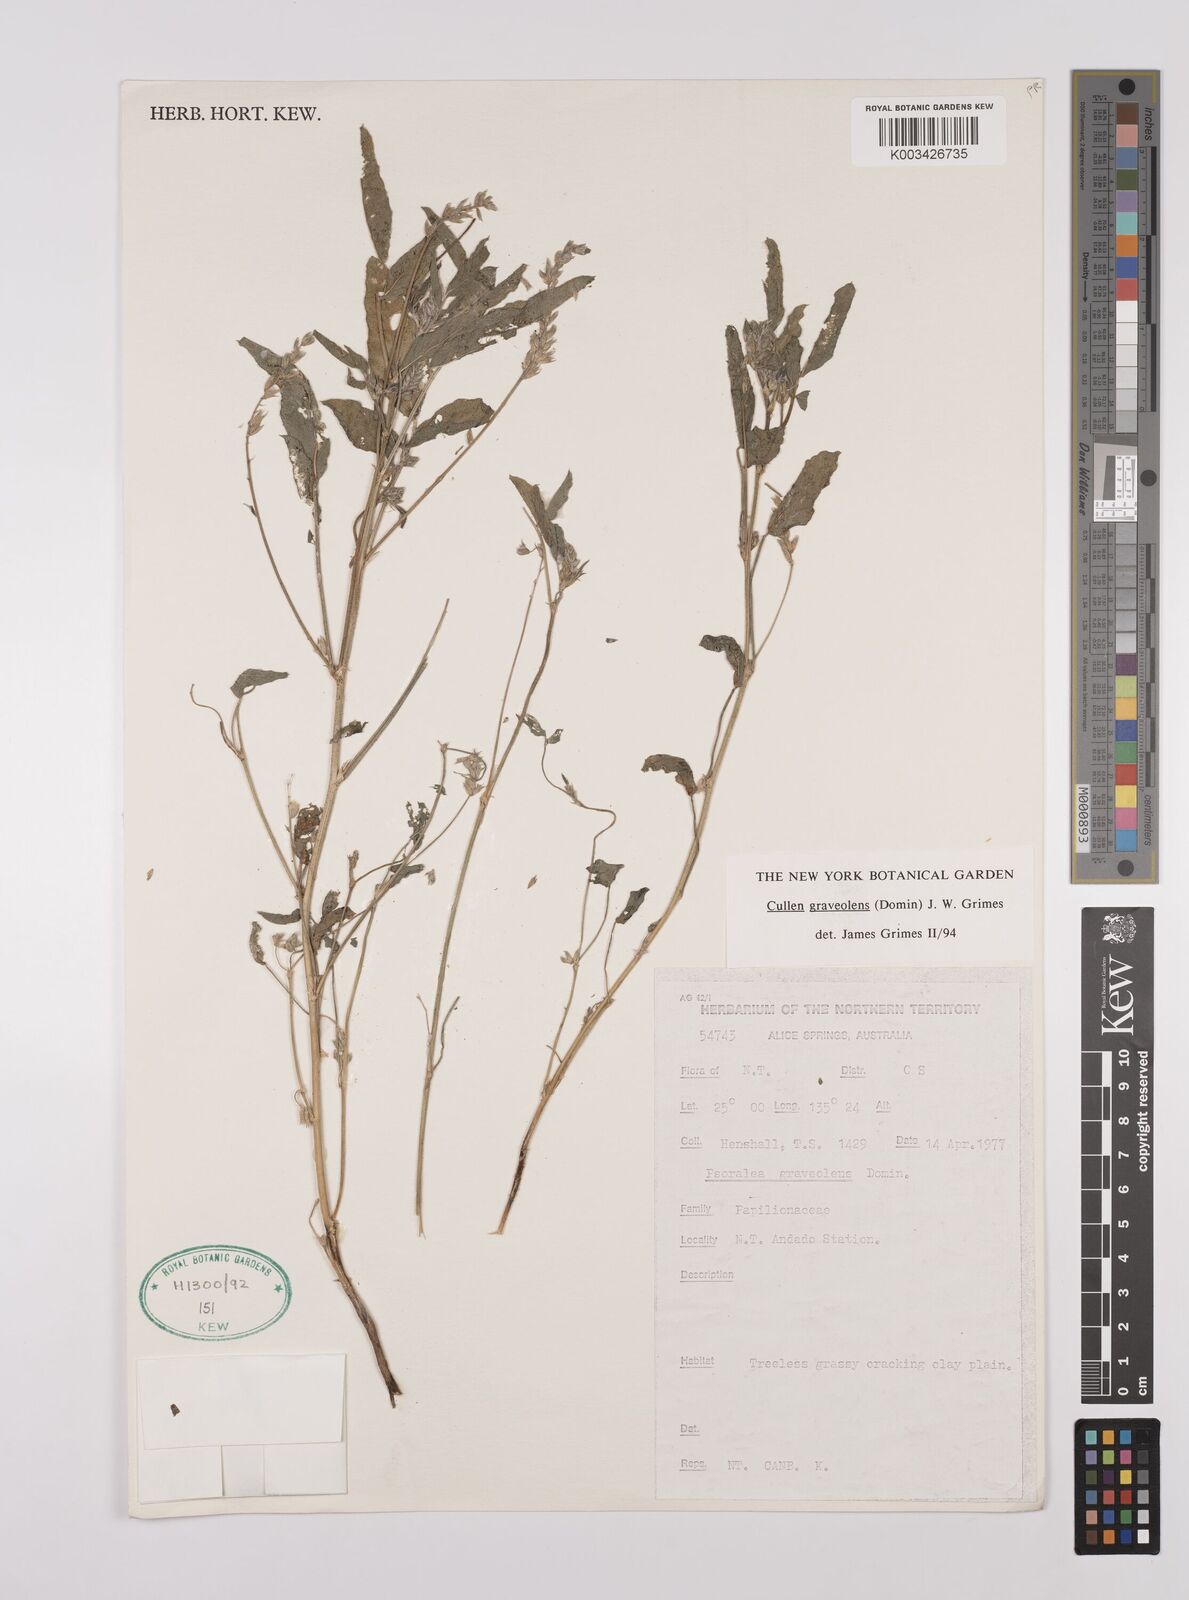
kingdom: Plantae
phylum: Tracheophyta
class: Magnoliopsida
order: Fabales
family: Fabaceae
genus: Cullen
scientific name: Cullen graveolens
